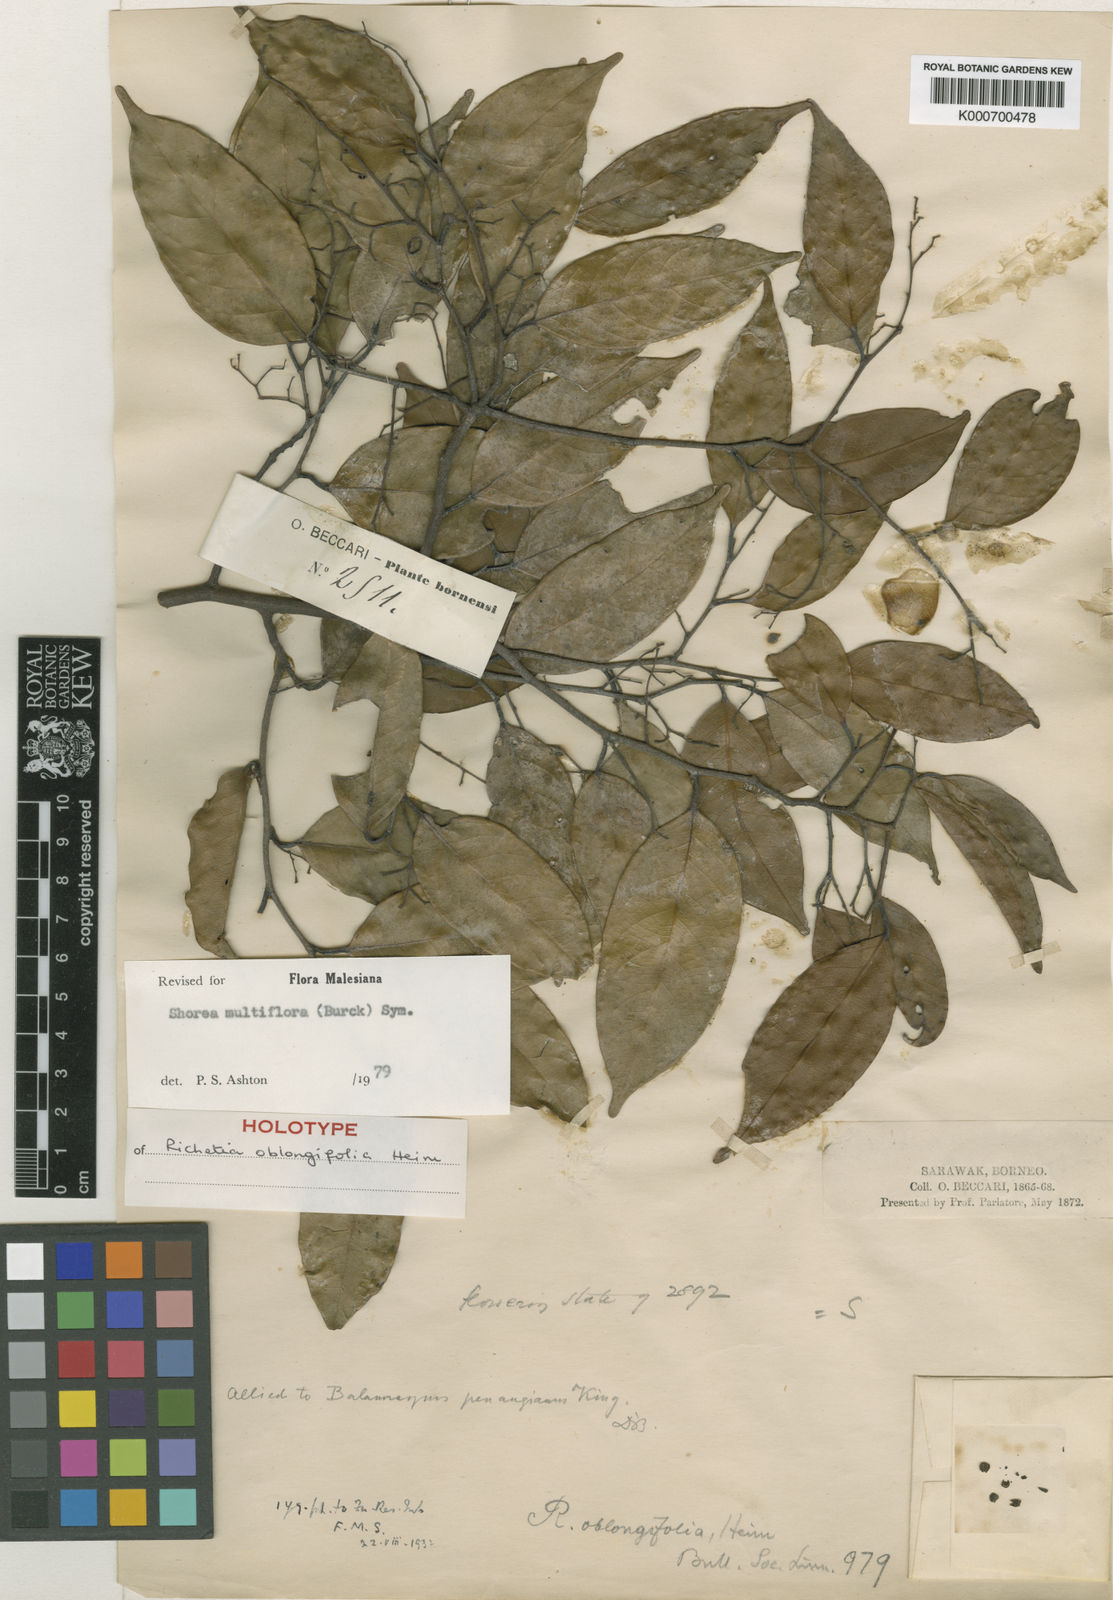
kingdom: Plantae
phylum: Tracheophyta
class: Magnoliopsida
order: Malvales
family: Dipterocarpaceae
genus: Shorea
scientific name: Shorea multiflora
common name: Yellow meranti
